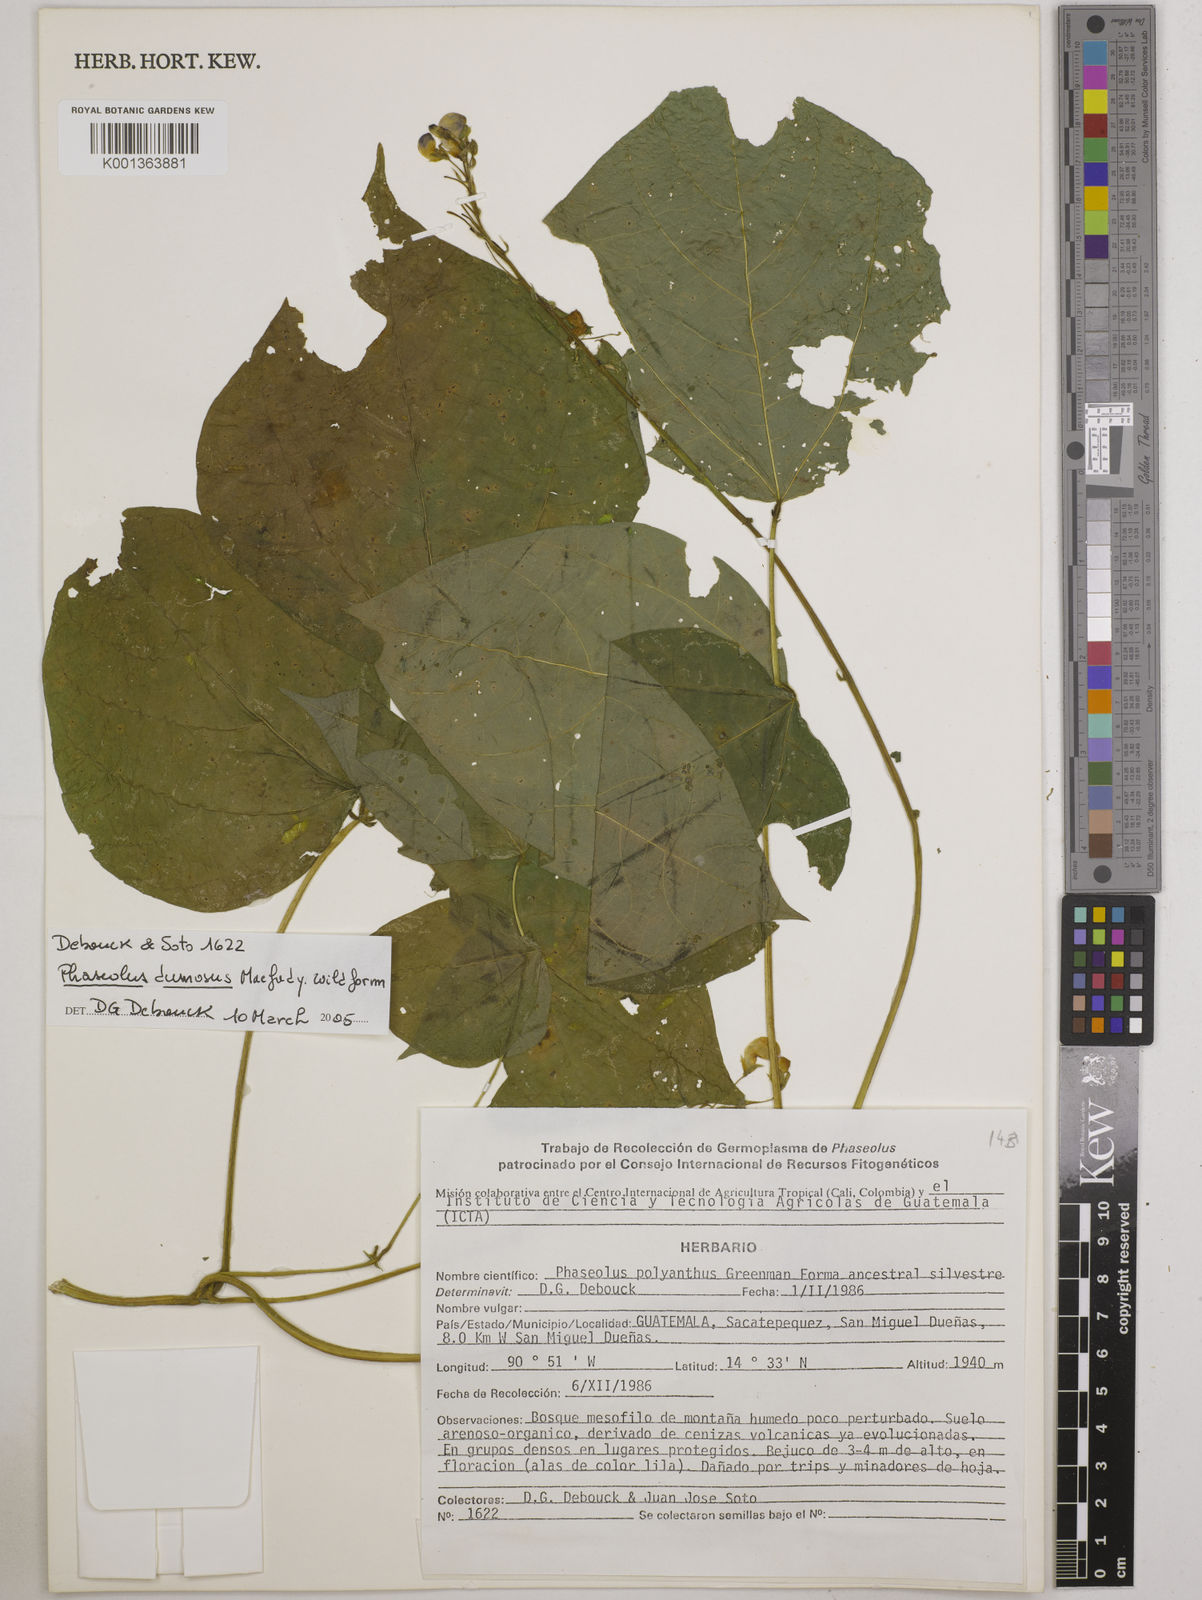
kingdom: Plantae
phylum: Tracheophyta
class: Magnoliopsida
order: Fabales
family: Fabaceae
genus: Phaseolus
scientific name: Phaseolus dumosus
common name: Year bean
